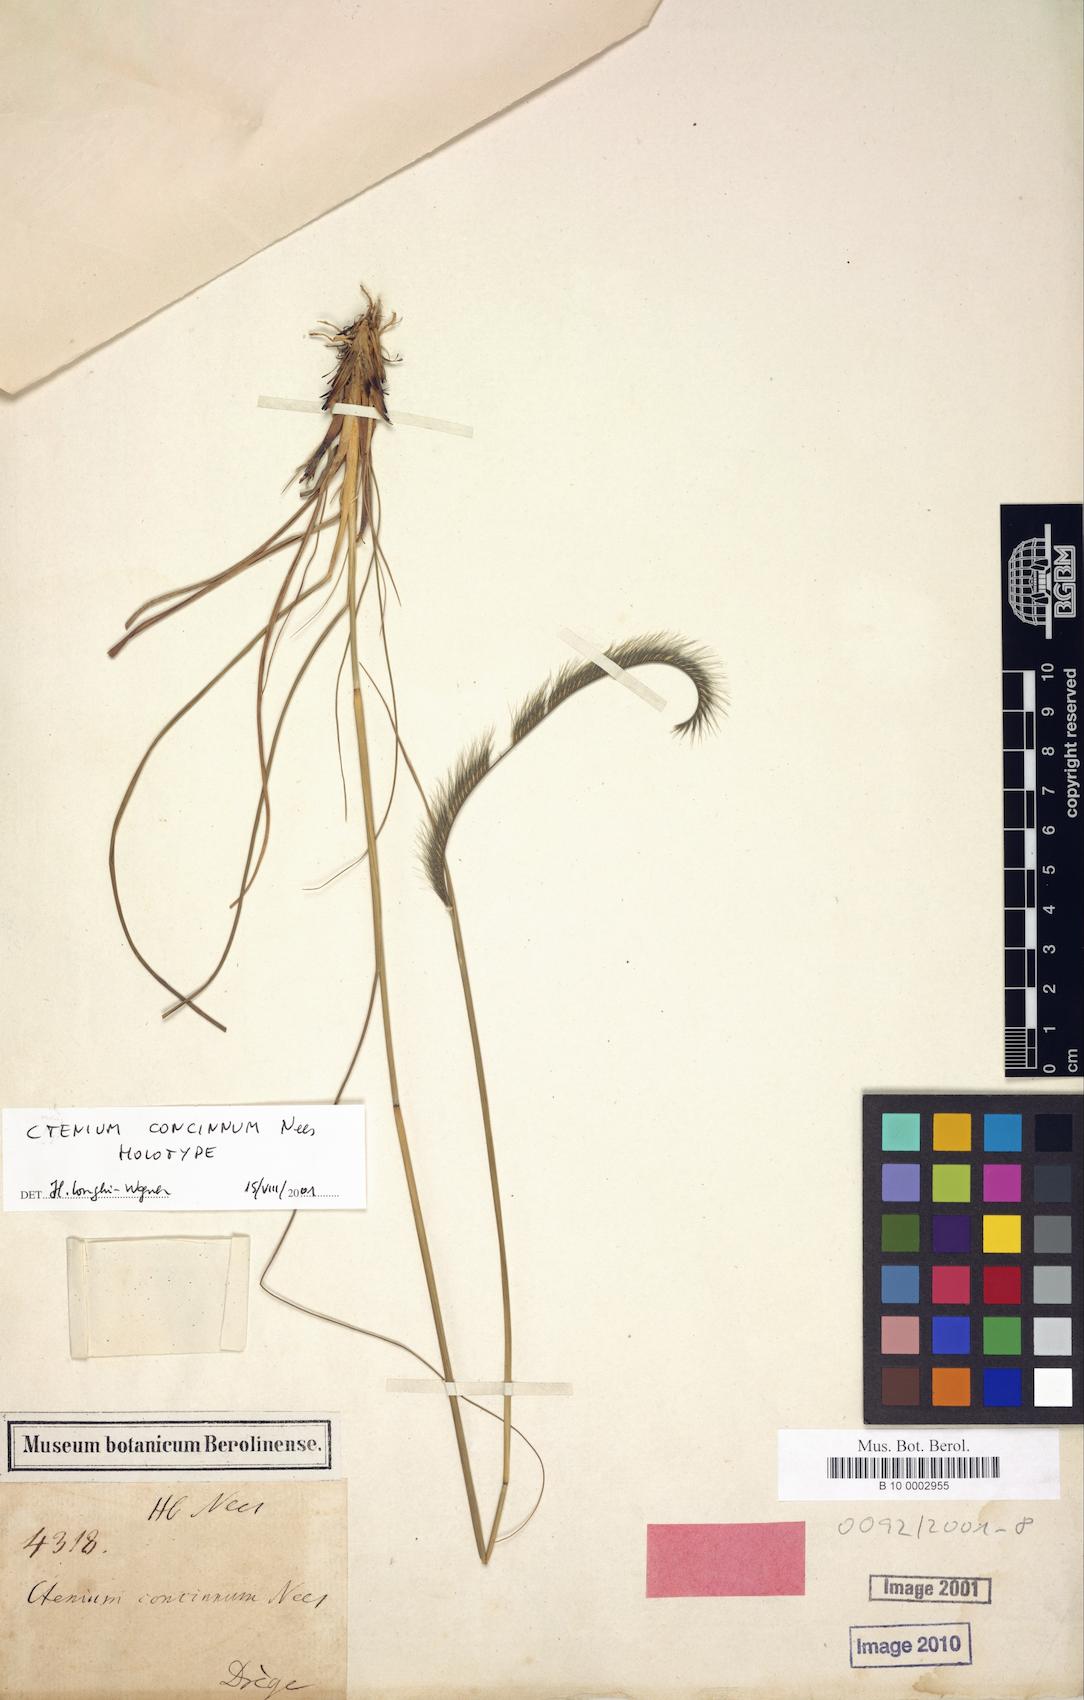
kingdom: Plantae
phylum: Tracheophyta
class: Liliopsida
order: Poales
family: Poaceae
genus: Ctenium
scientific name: Ctenium concinnum
